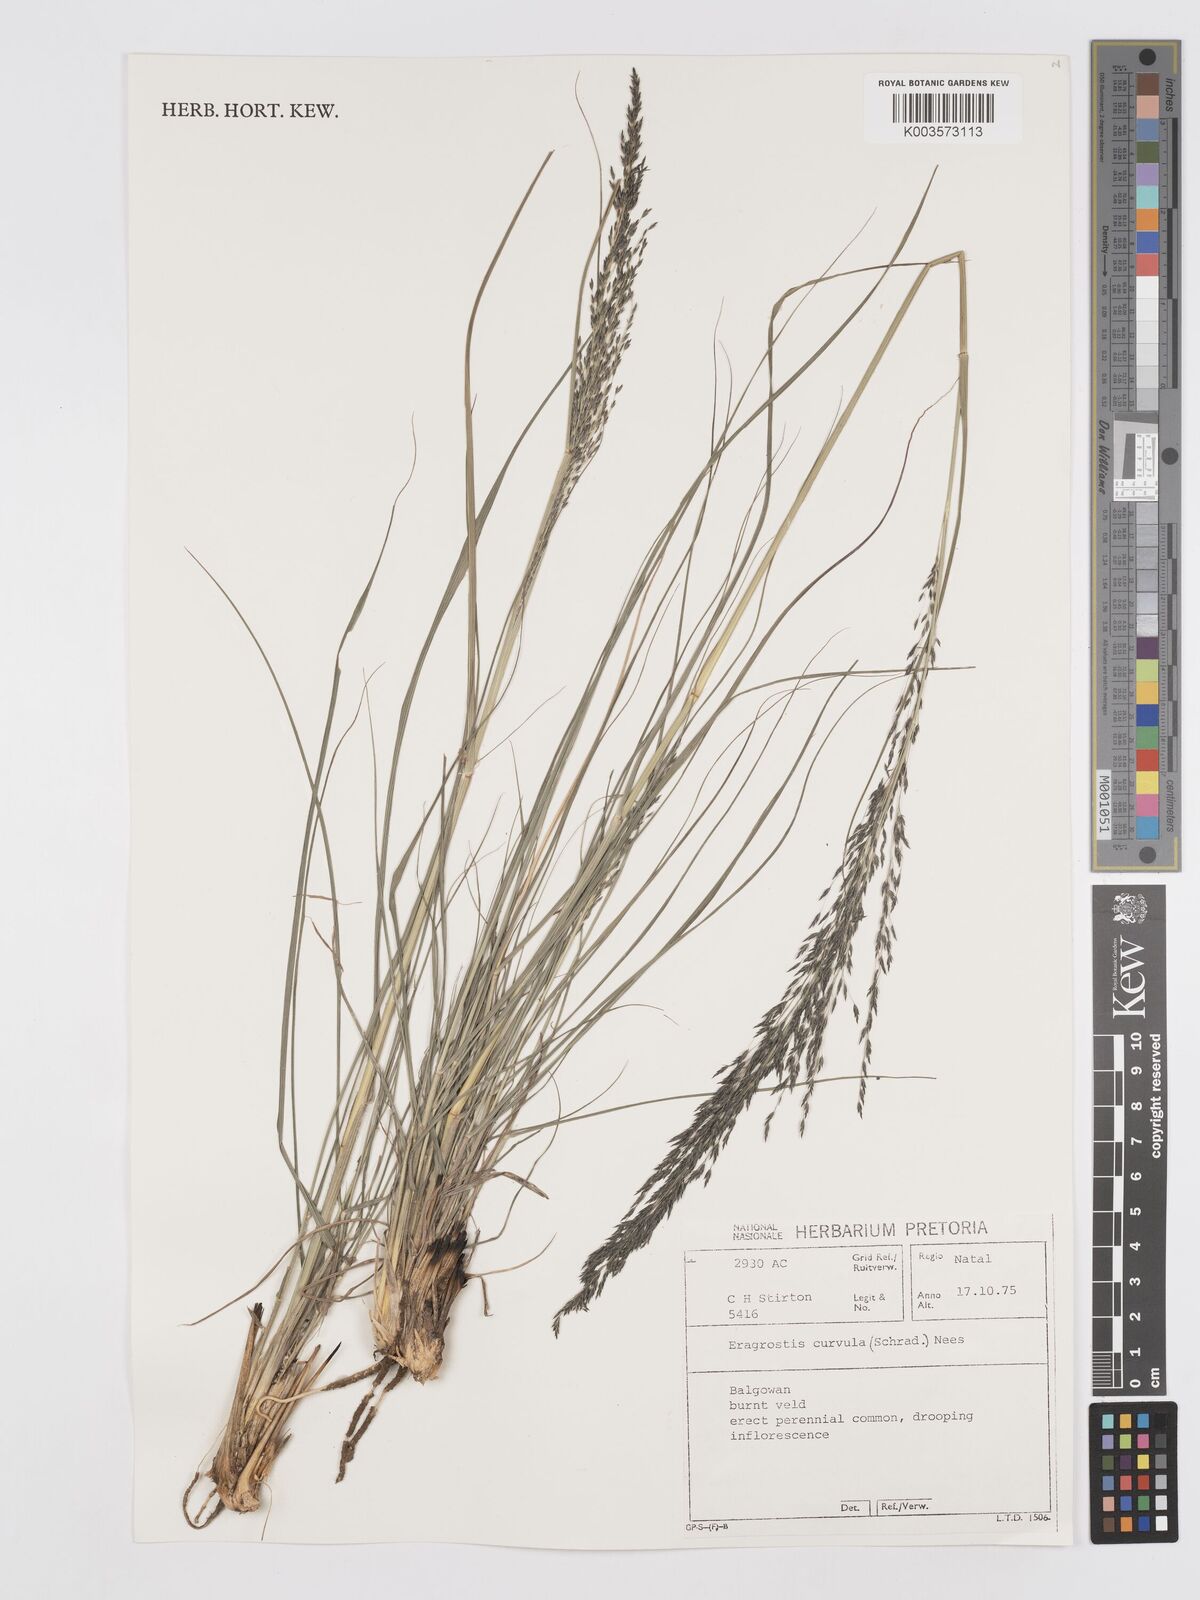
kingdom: Plantae
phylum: Tracheophyta
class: Liliopsida
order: Poales
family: Poaceae
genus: Eragrostis
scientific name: Eragrostis curvula
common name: African love-grass
